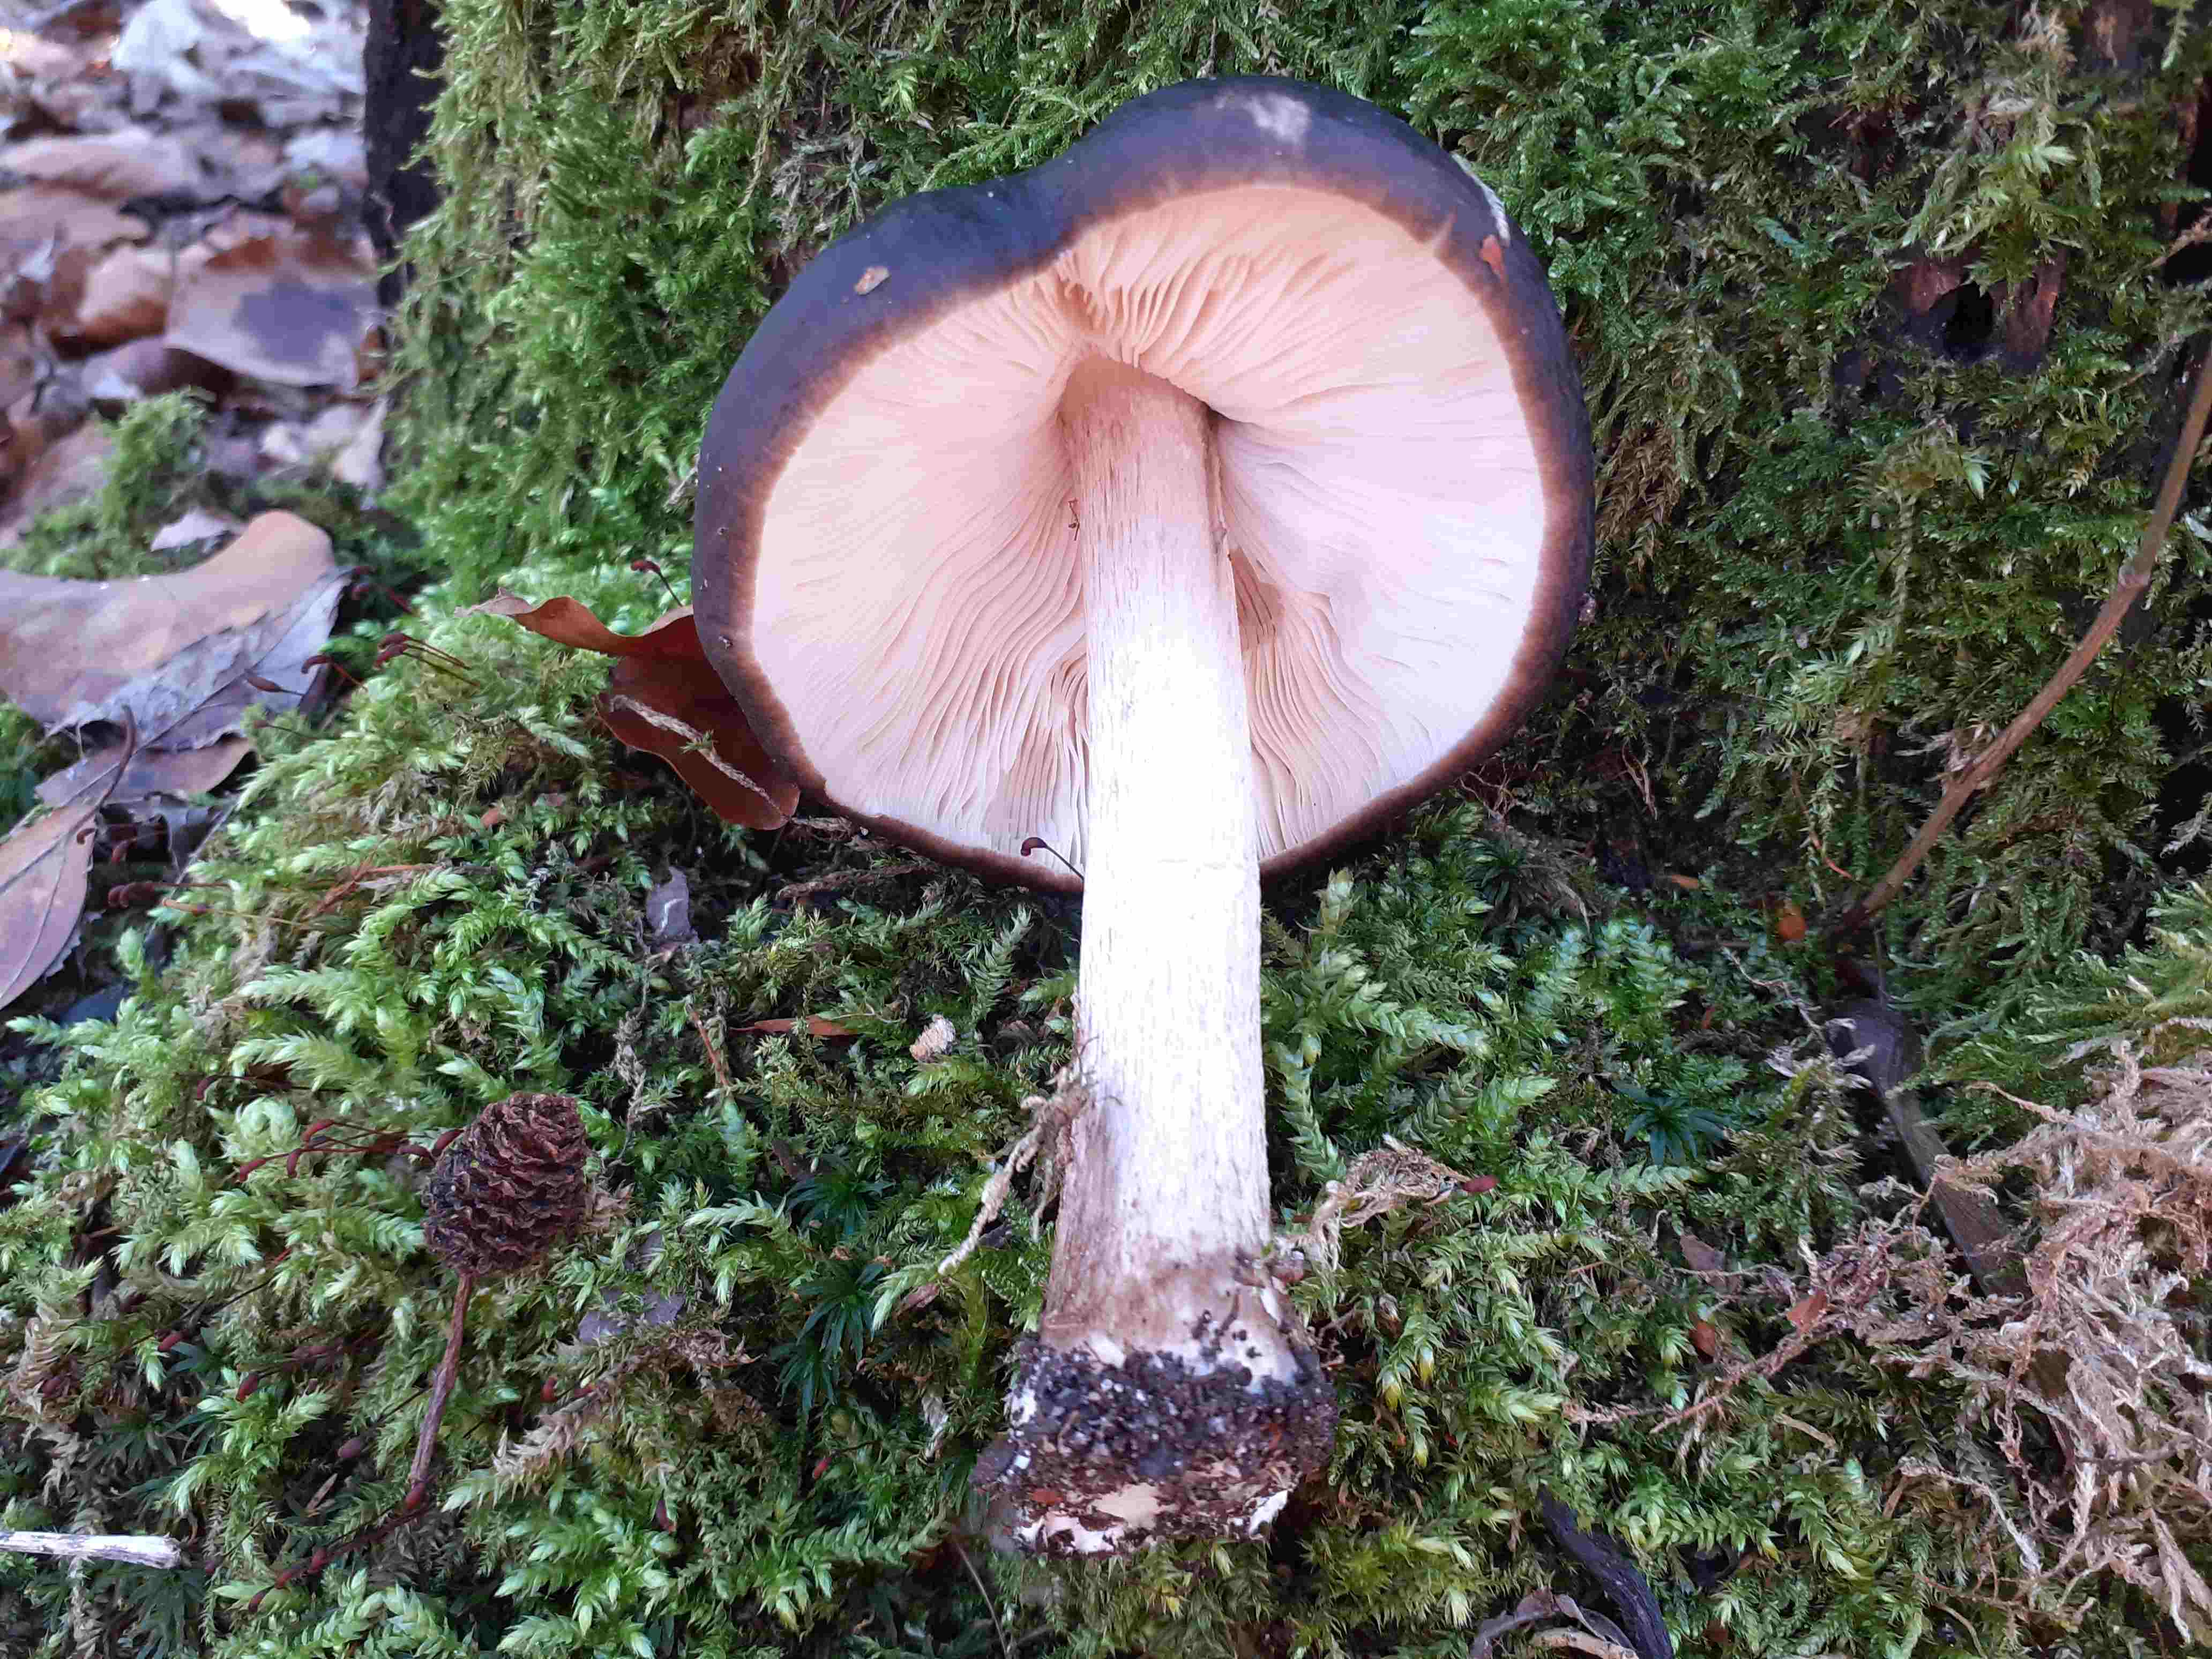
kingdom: Fungi
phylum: Basidiomycota
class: Agaricomycetes
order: Agaricales
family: Pluteaceae
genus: Pluteus
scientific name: Pluteus cervinus
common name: sodfarvet skærmhat
